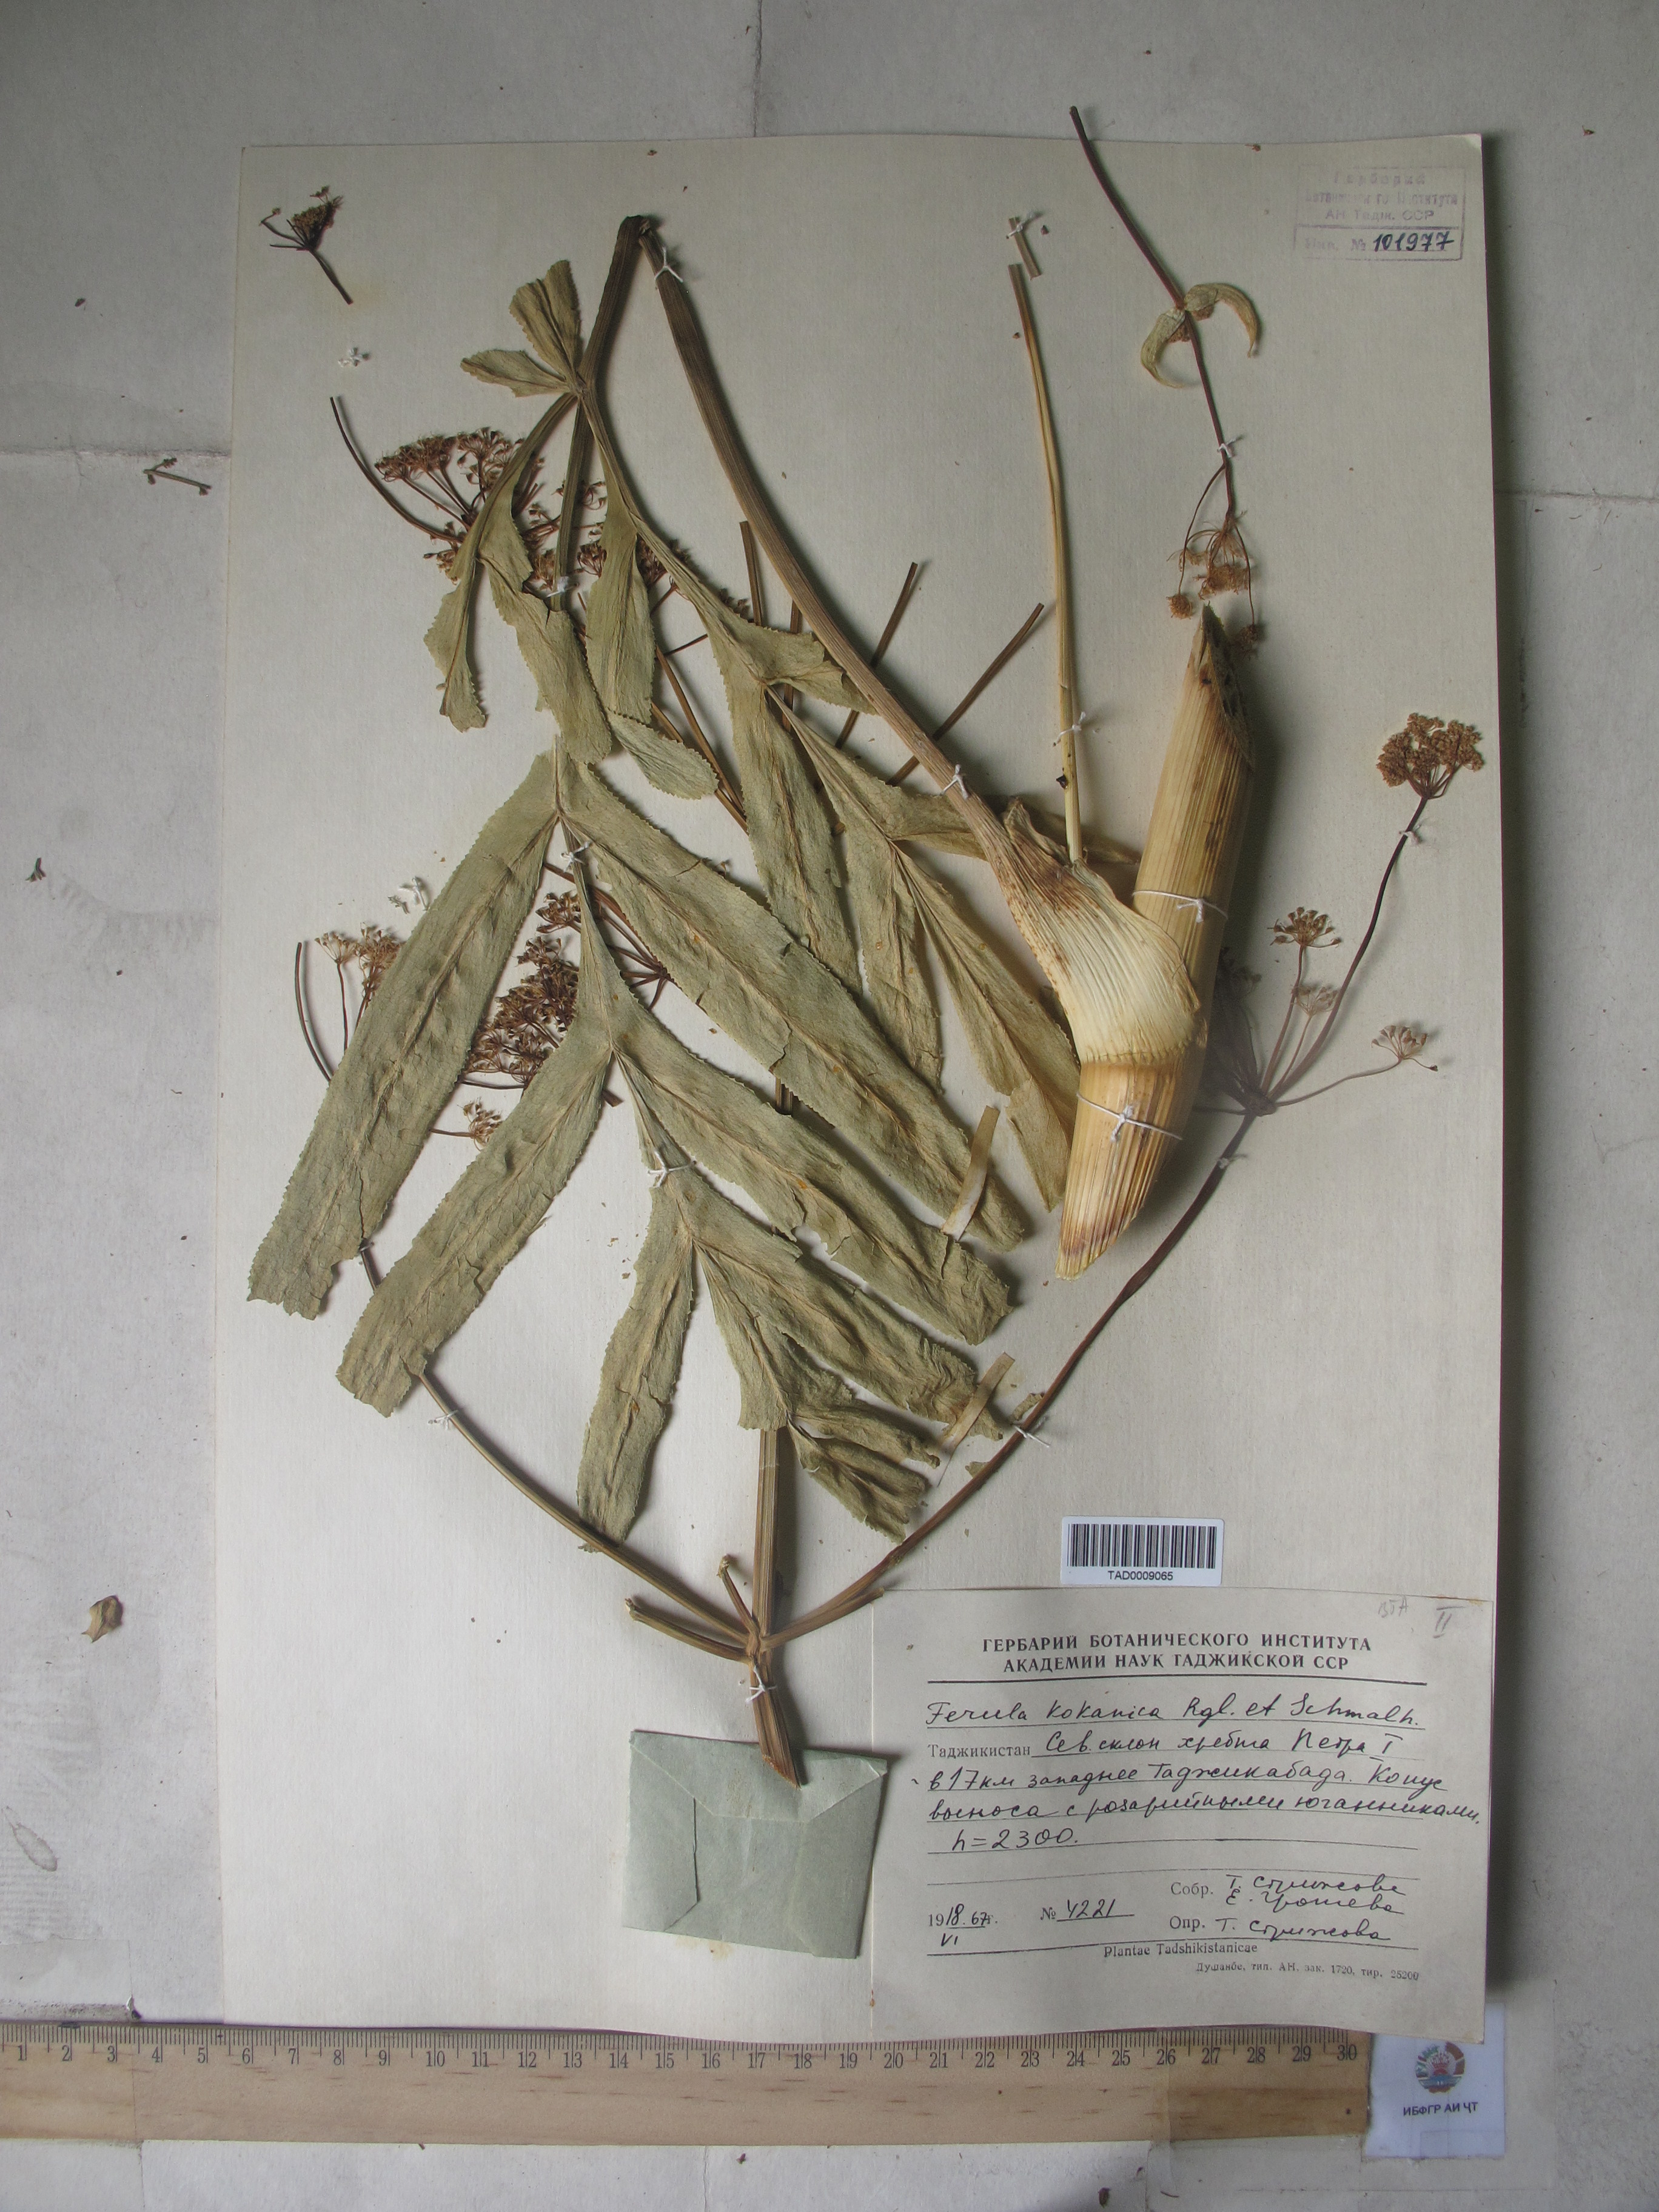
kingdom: Plantae
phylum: Tracheophyta
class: Magnoliopsida
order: Apiales
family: Apiaceae
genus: Ferula
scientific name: Ferula kokanica
